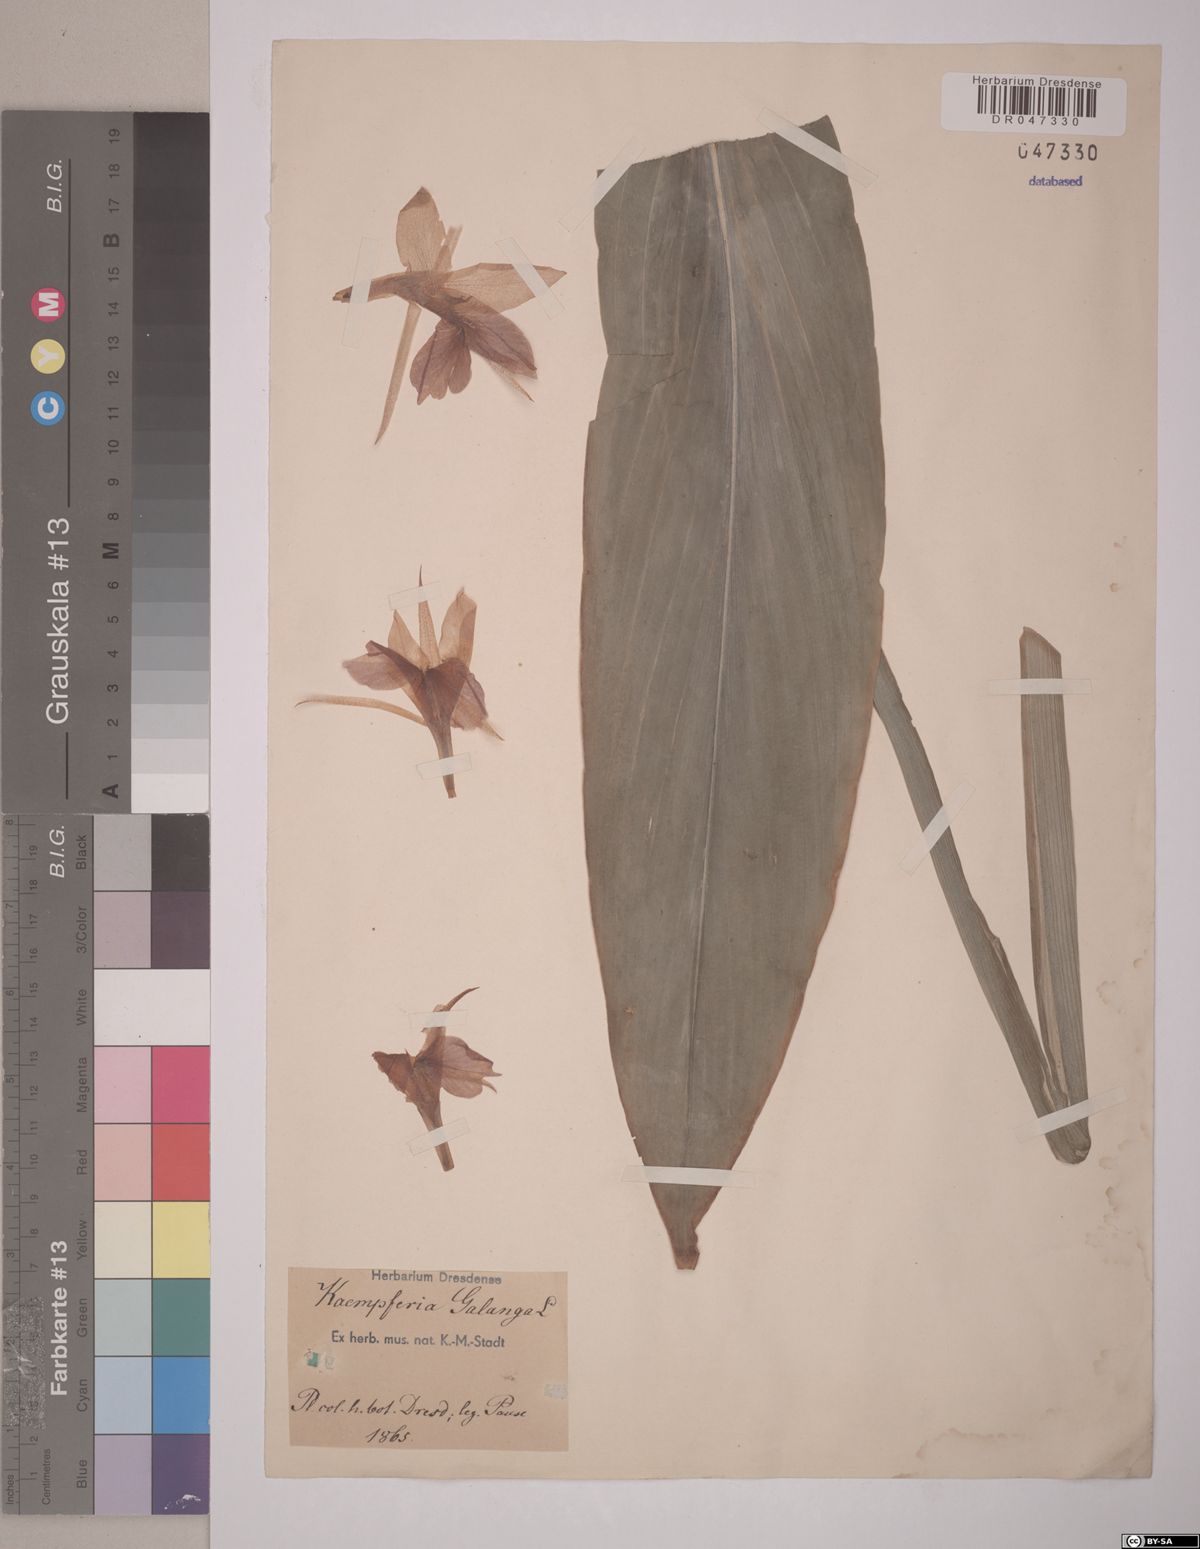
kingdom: Plantae
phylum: Tracheophyta
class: Liliopsida
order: Zingiberales
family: Zingiberaceae
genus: Kaempferia
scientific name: Kaempferia galanga
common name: Aromatic ginger
